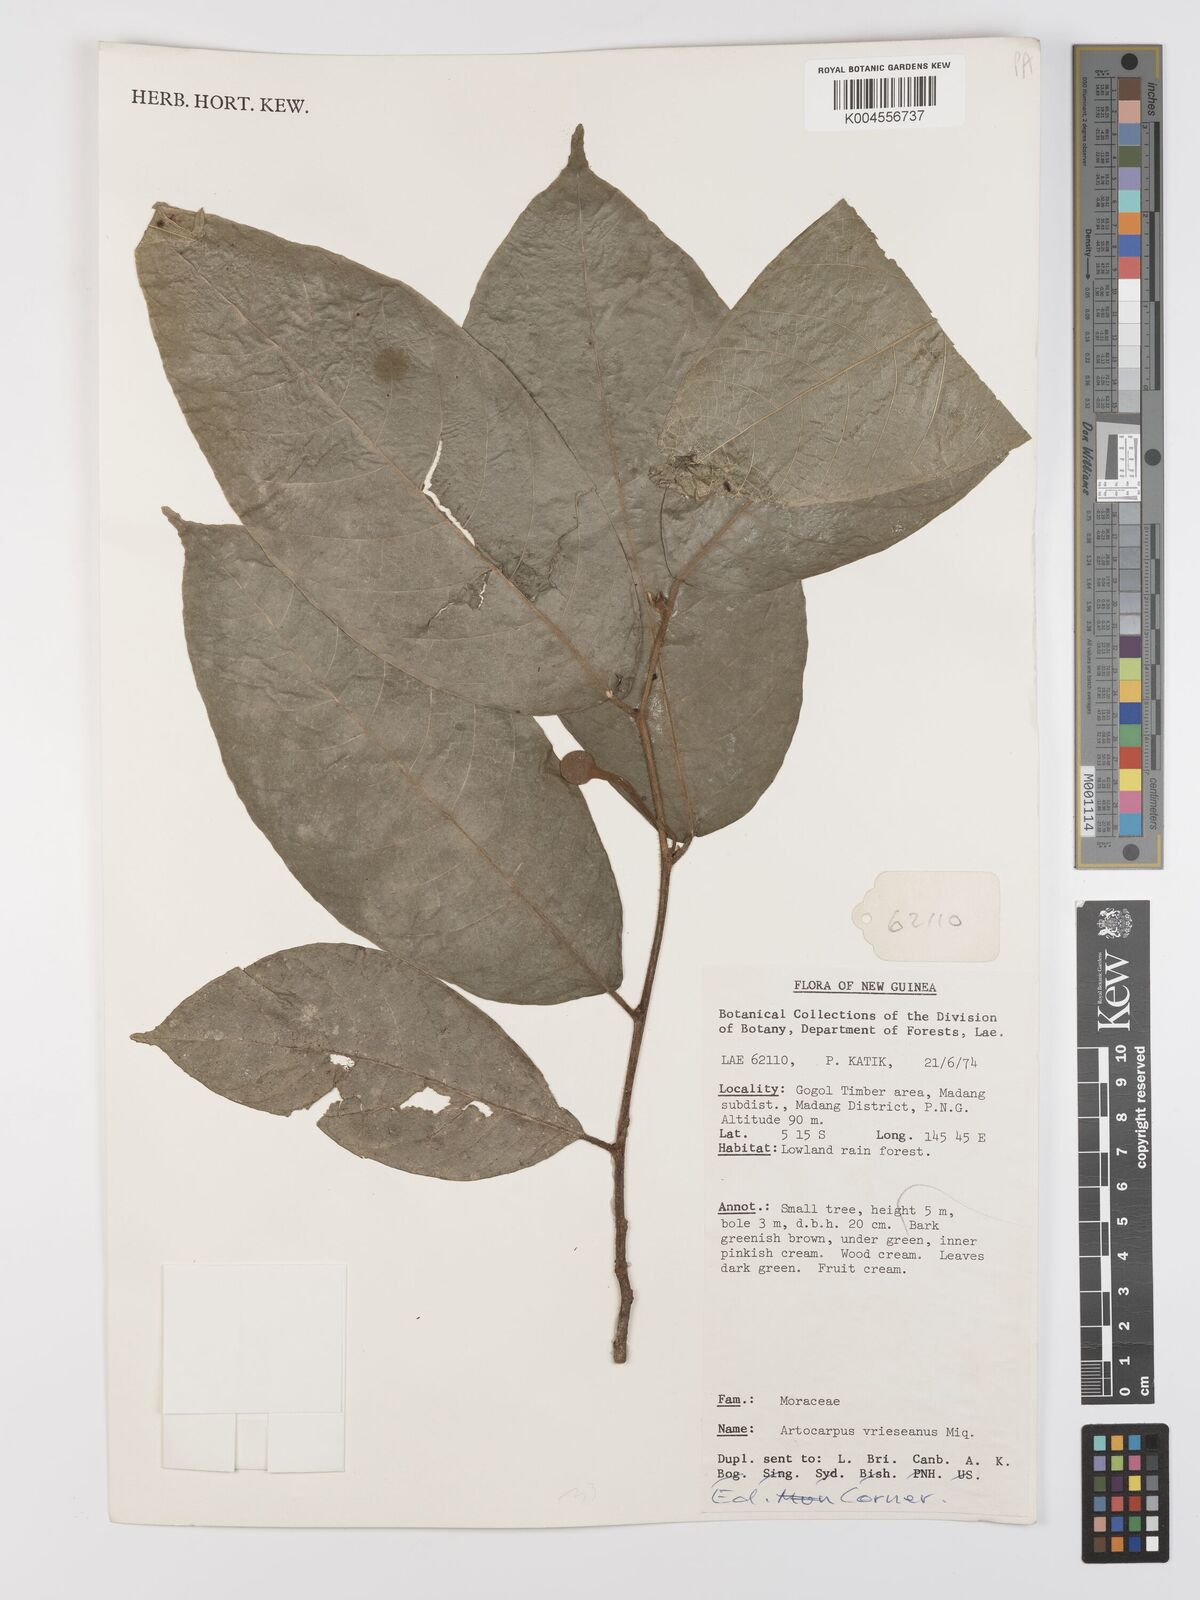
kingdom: Plantae
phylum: Tracheophyta
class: Magnoliopsida
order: Rosales
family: Moraceae
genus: Artocarpus
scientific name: Artocarpus vrieseanus
